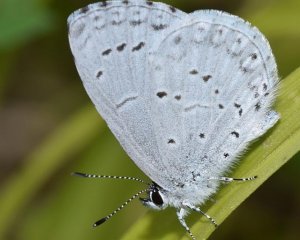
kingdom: Animalia
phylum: Arthropoda
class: Insecta
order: Lepidoptera
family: Lycaenidae
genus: Cyaniris
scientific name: Cyaniris neglecta
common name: Summer Azure
